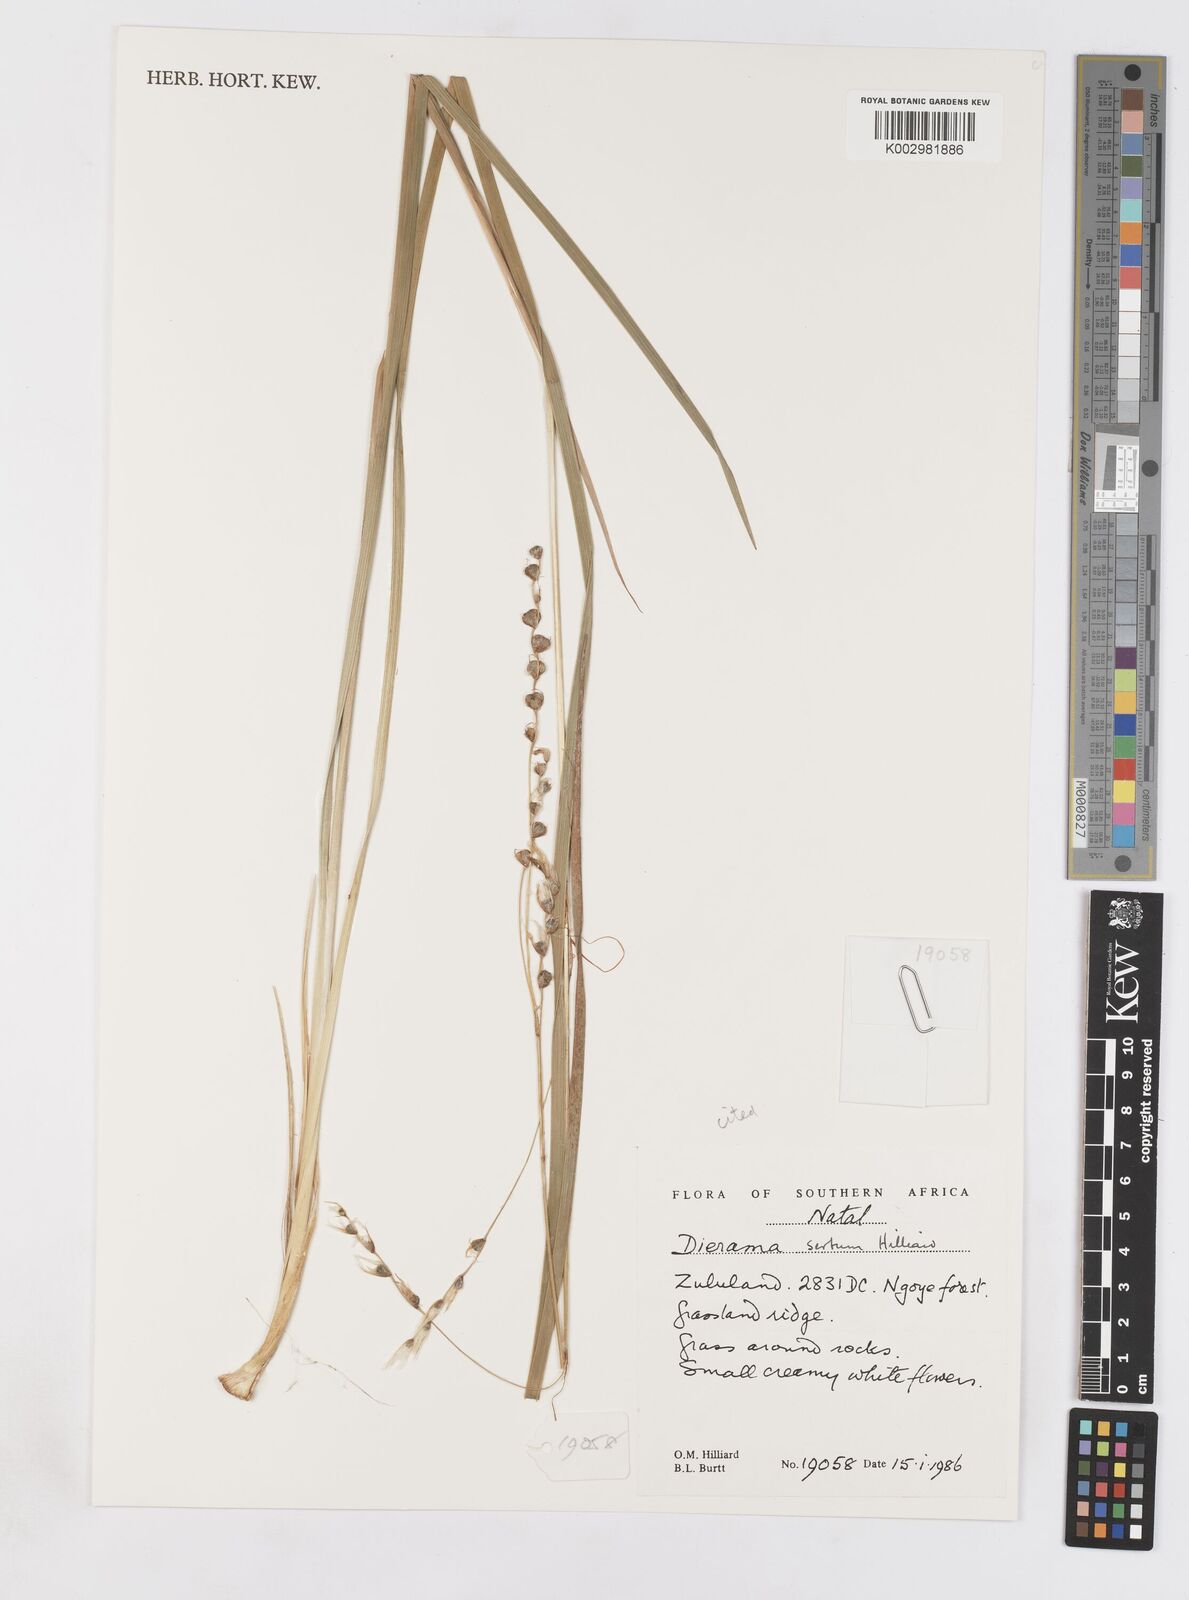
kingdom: Plantae
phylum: Tracheophyta
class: Liliopsida
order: Asparagales
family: Iridaceae
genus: Dierama
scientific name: Dierama sertum
